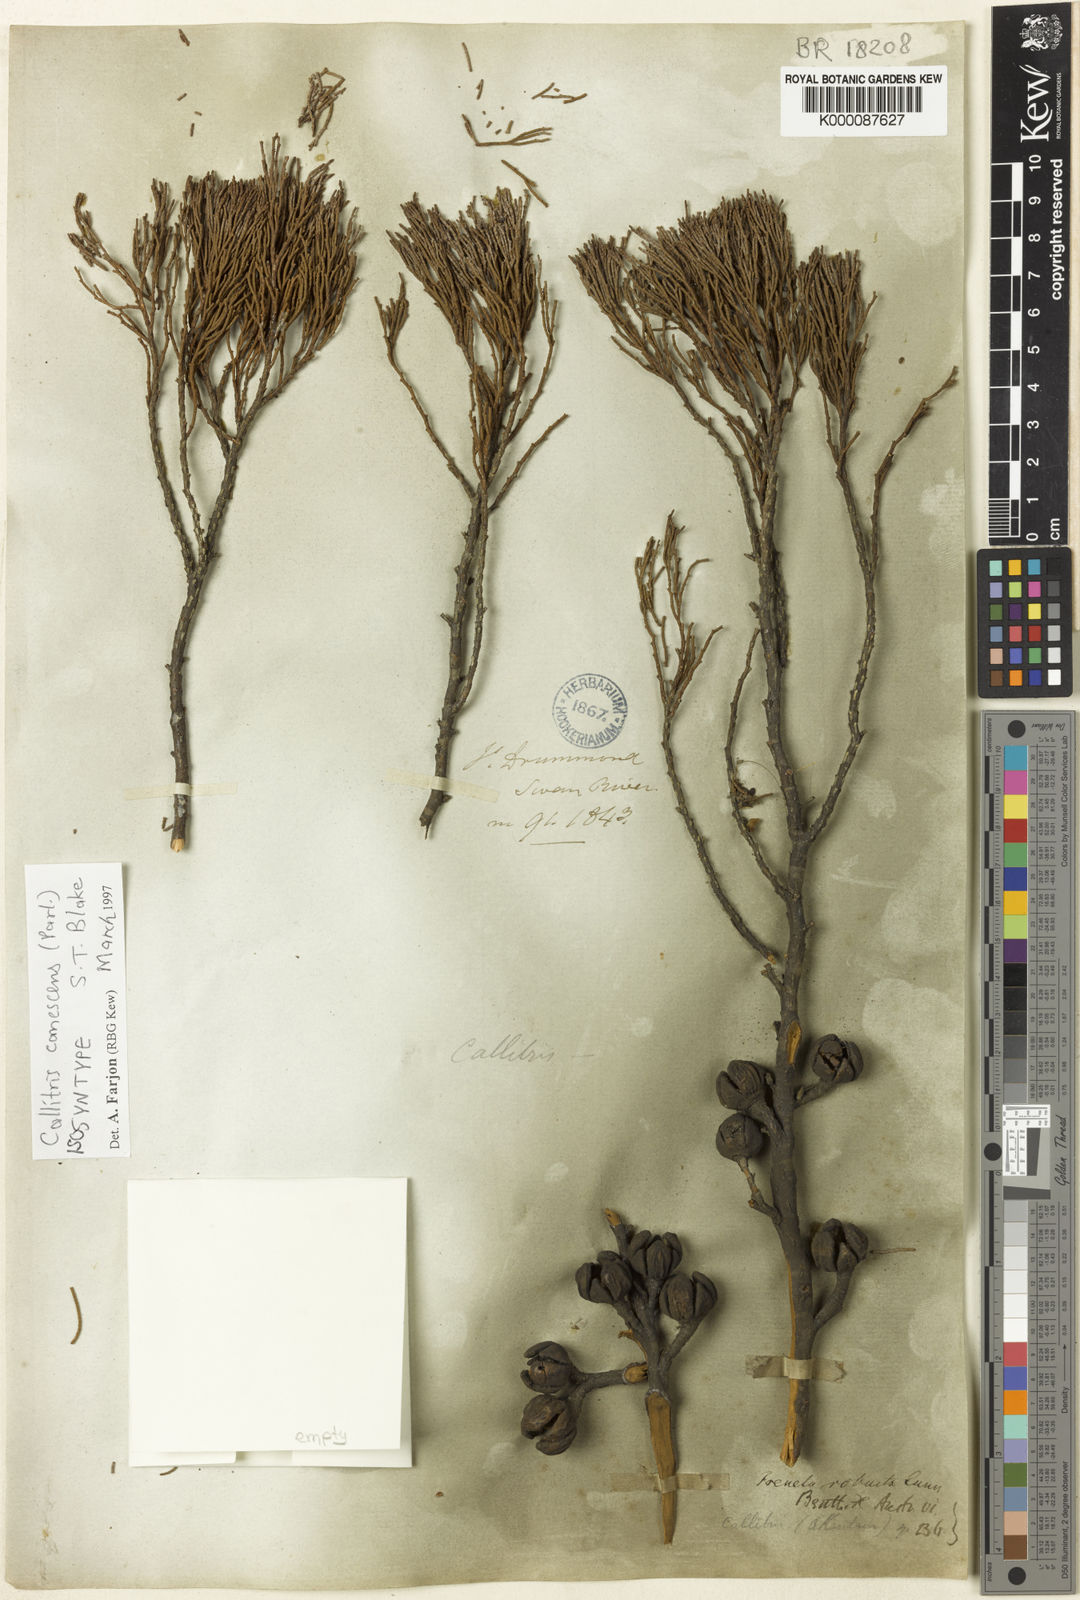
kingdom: Plantae
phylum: Tracheophyta
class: Pinopsida
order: Pinales
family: Cupressaceae
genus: Callitris
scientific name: Callitris canescens
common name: Morrison's cypress-pine
